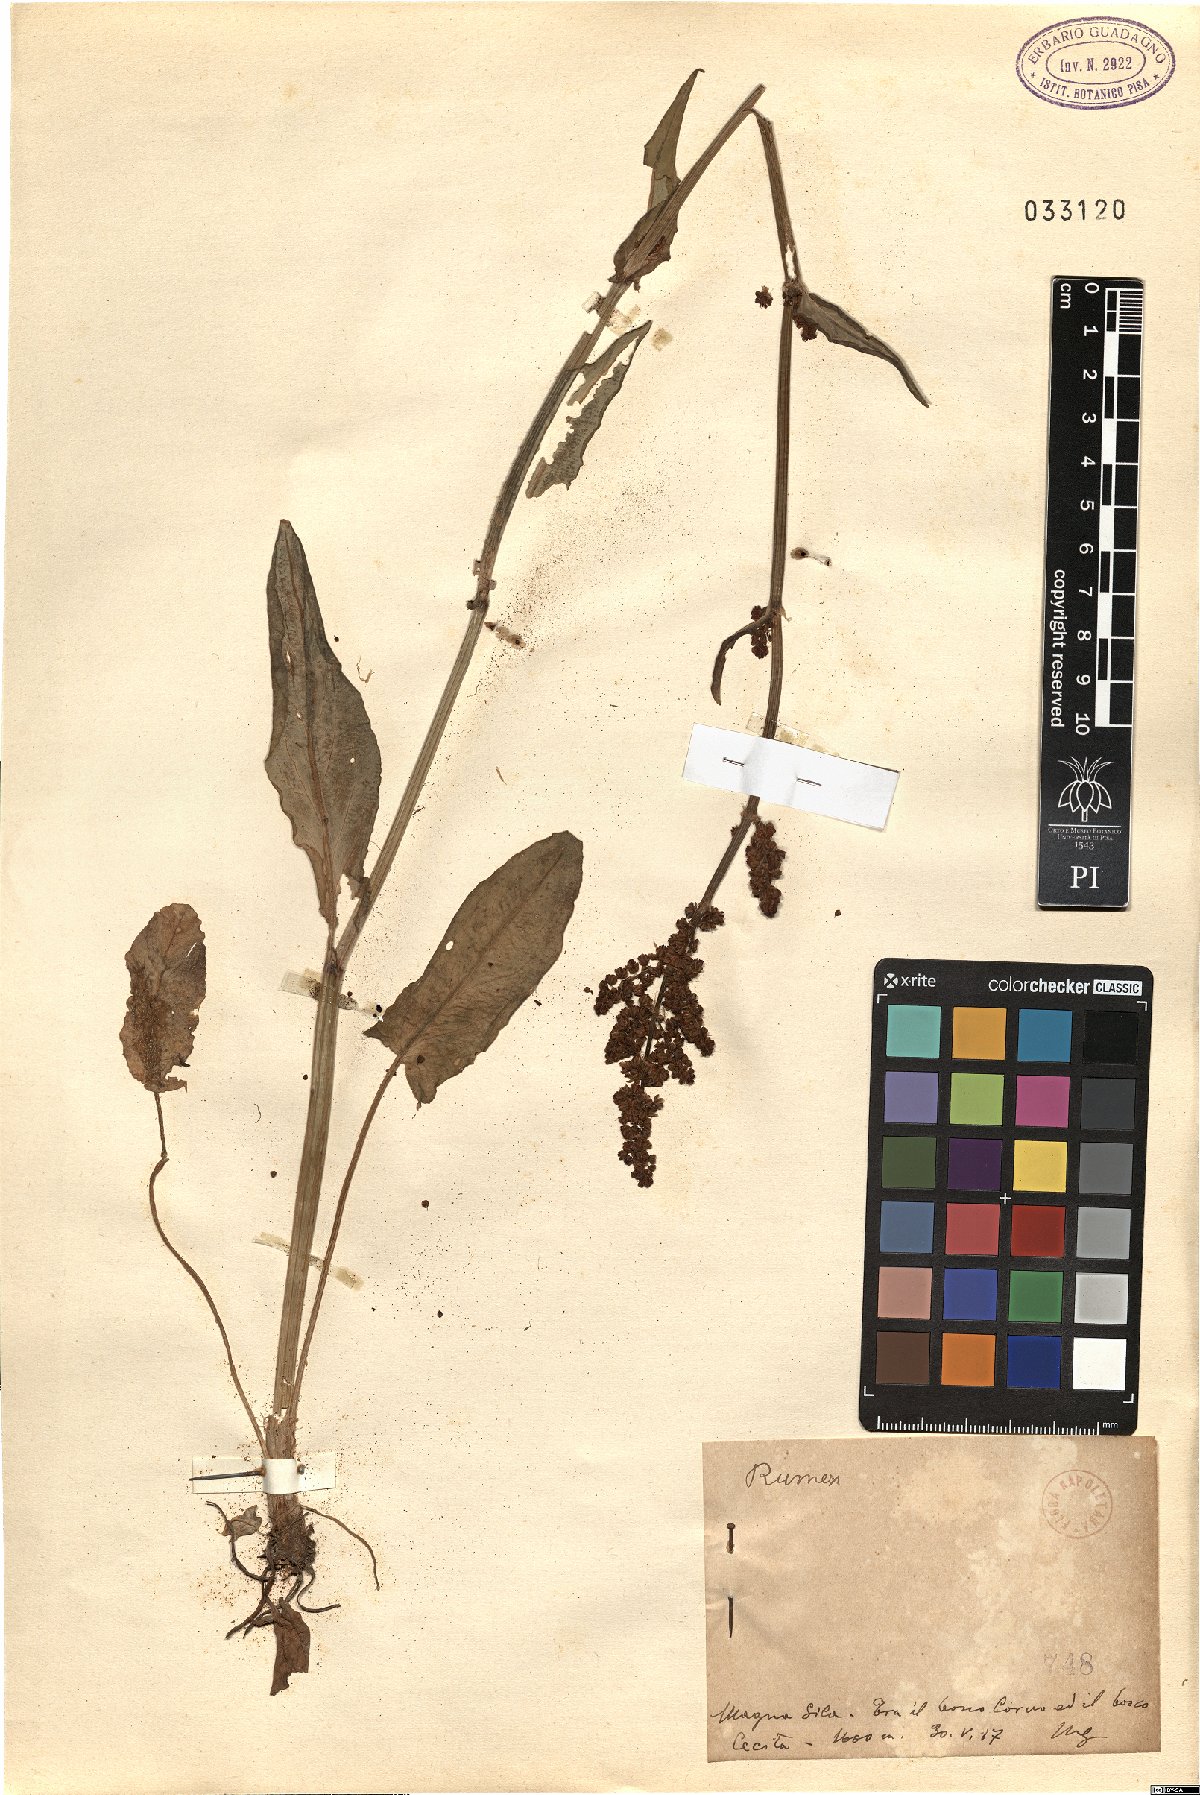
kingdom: Plantae
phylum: Tracheophyta
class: Magnoliopsida
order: Caryophyllales
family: Polygonaceae
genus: Rumex
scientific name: Rumex
